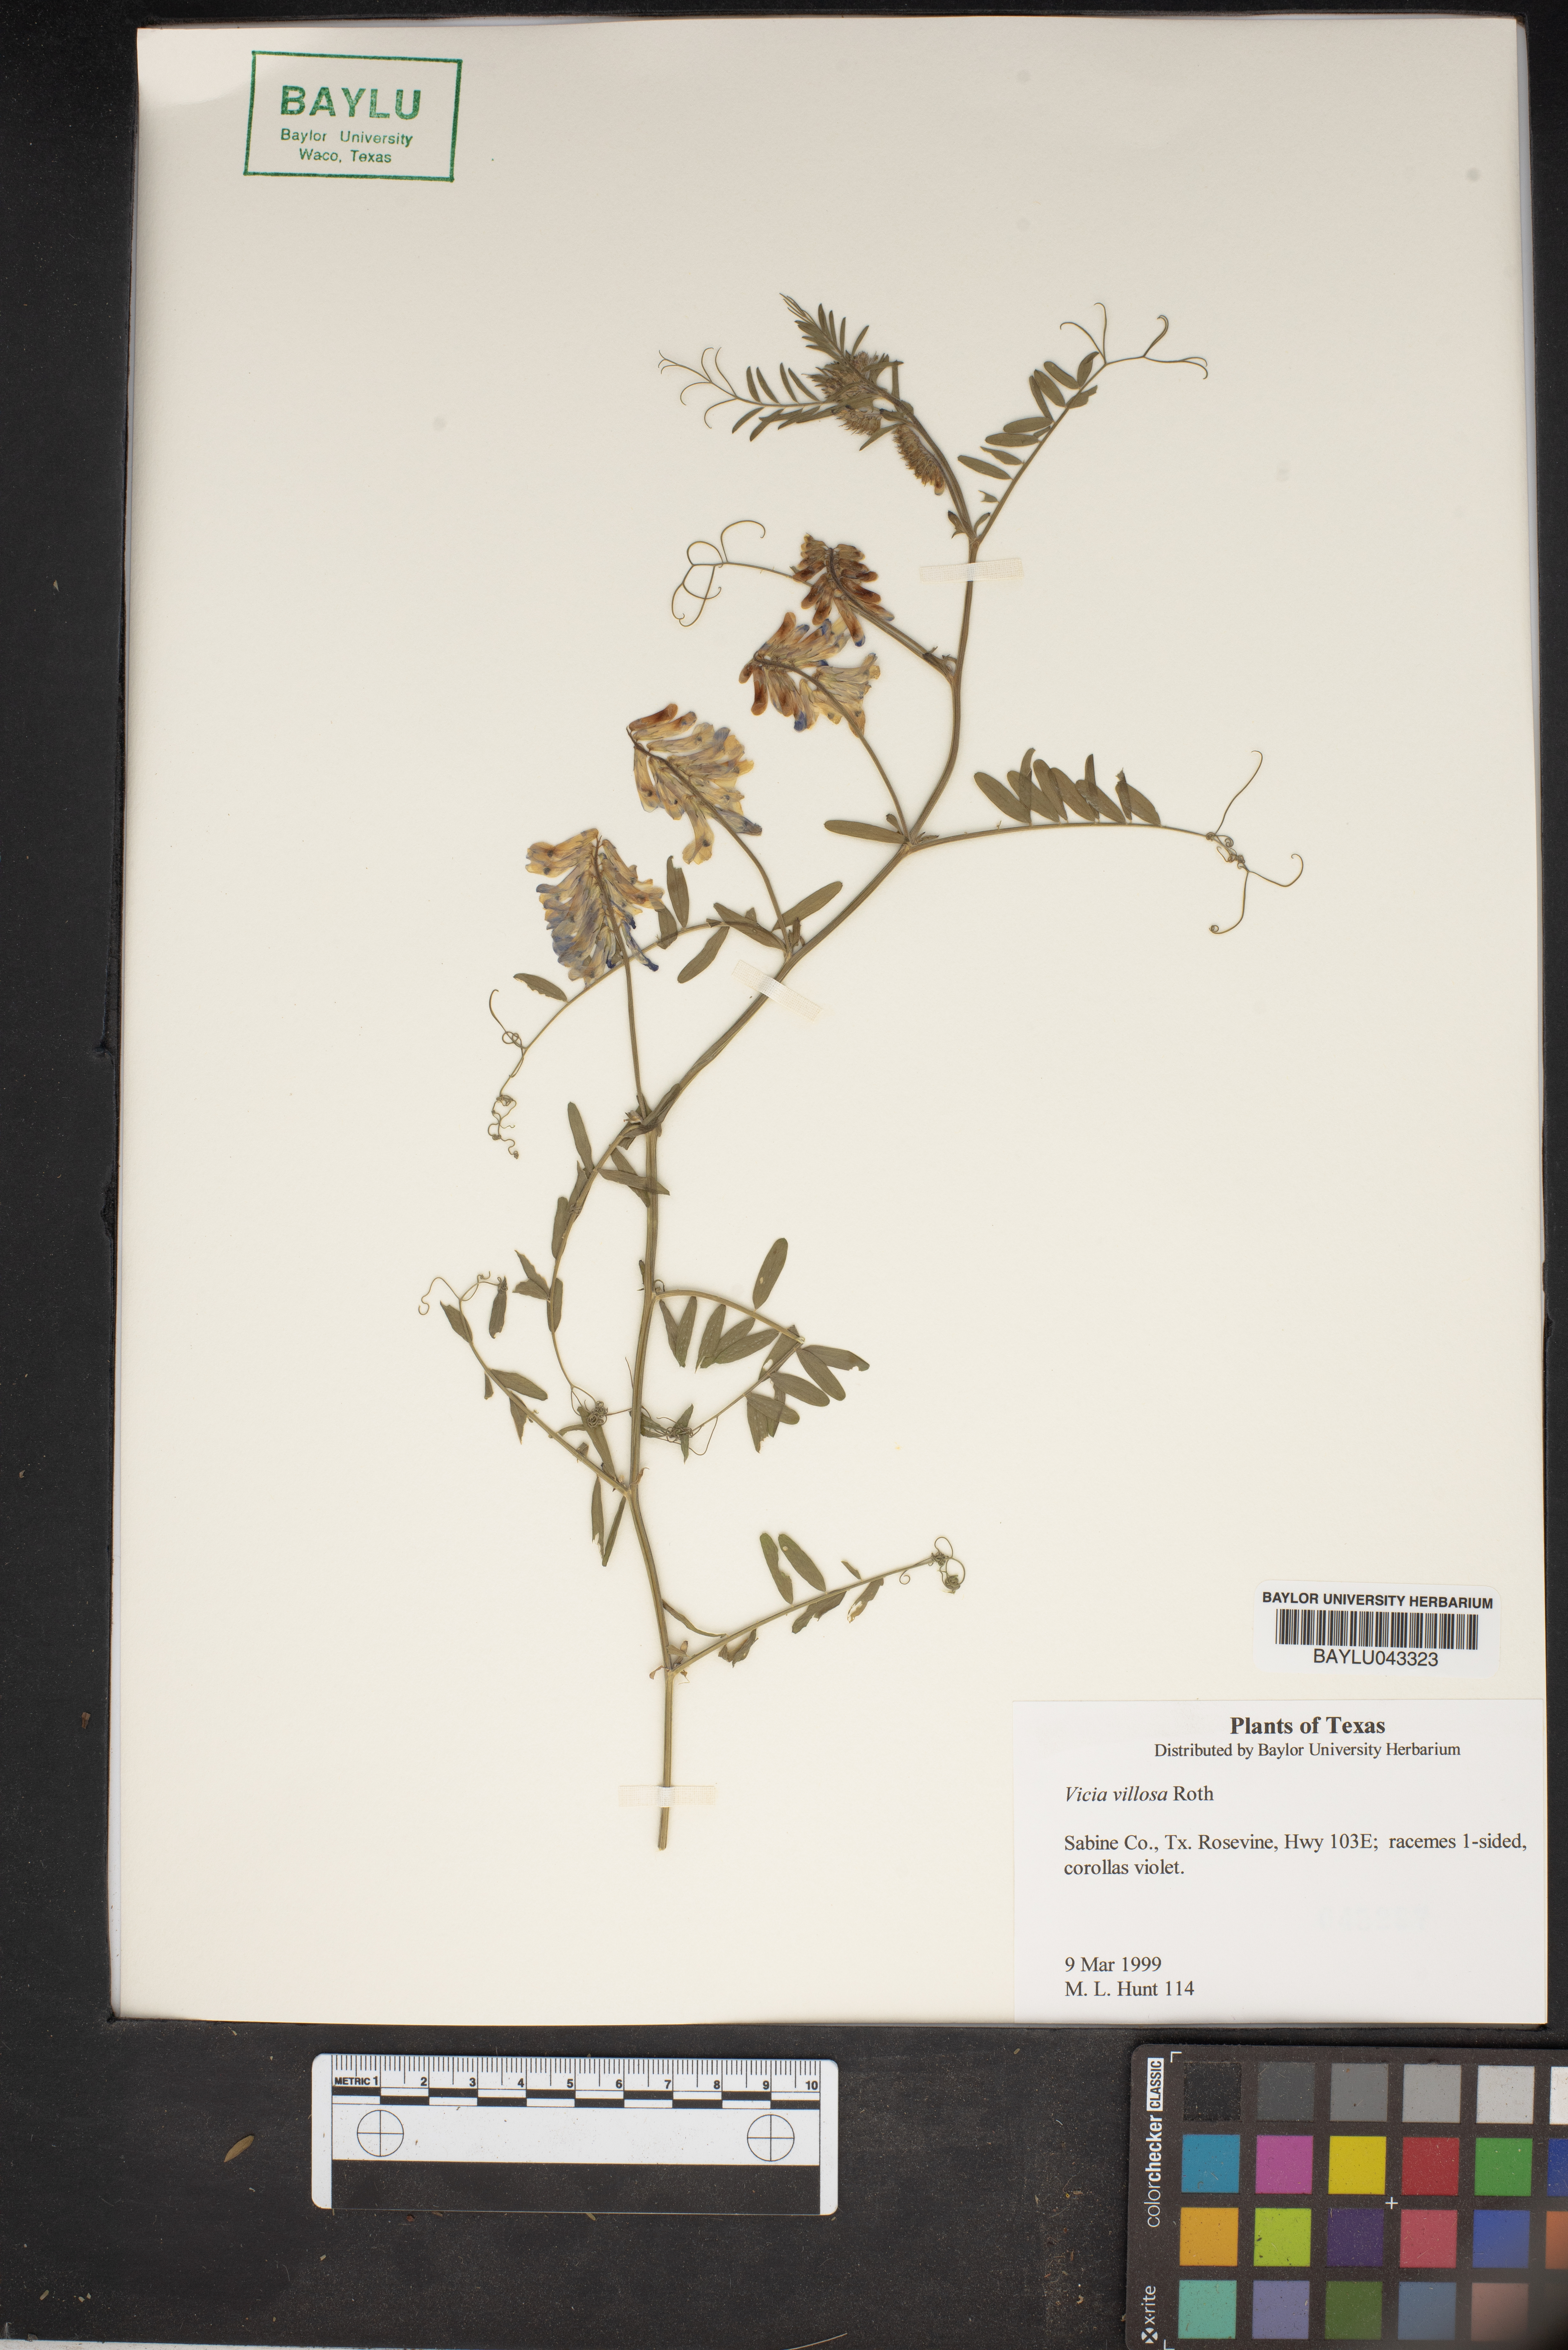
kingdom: Plantae
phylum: Tracheophyta
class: Magnoliopsida
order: Fabales
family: Fabaceae
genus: Vicia
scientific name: Vicia villosa
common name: Fodder vetch
